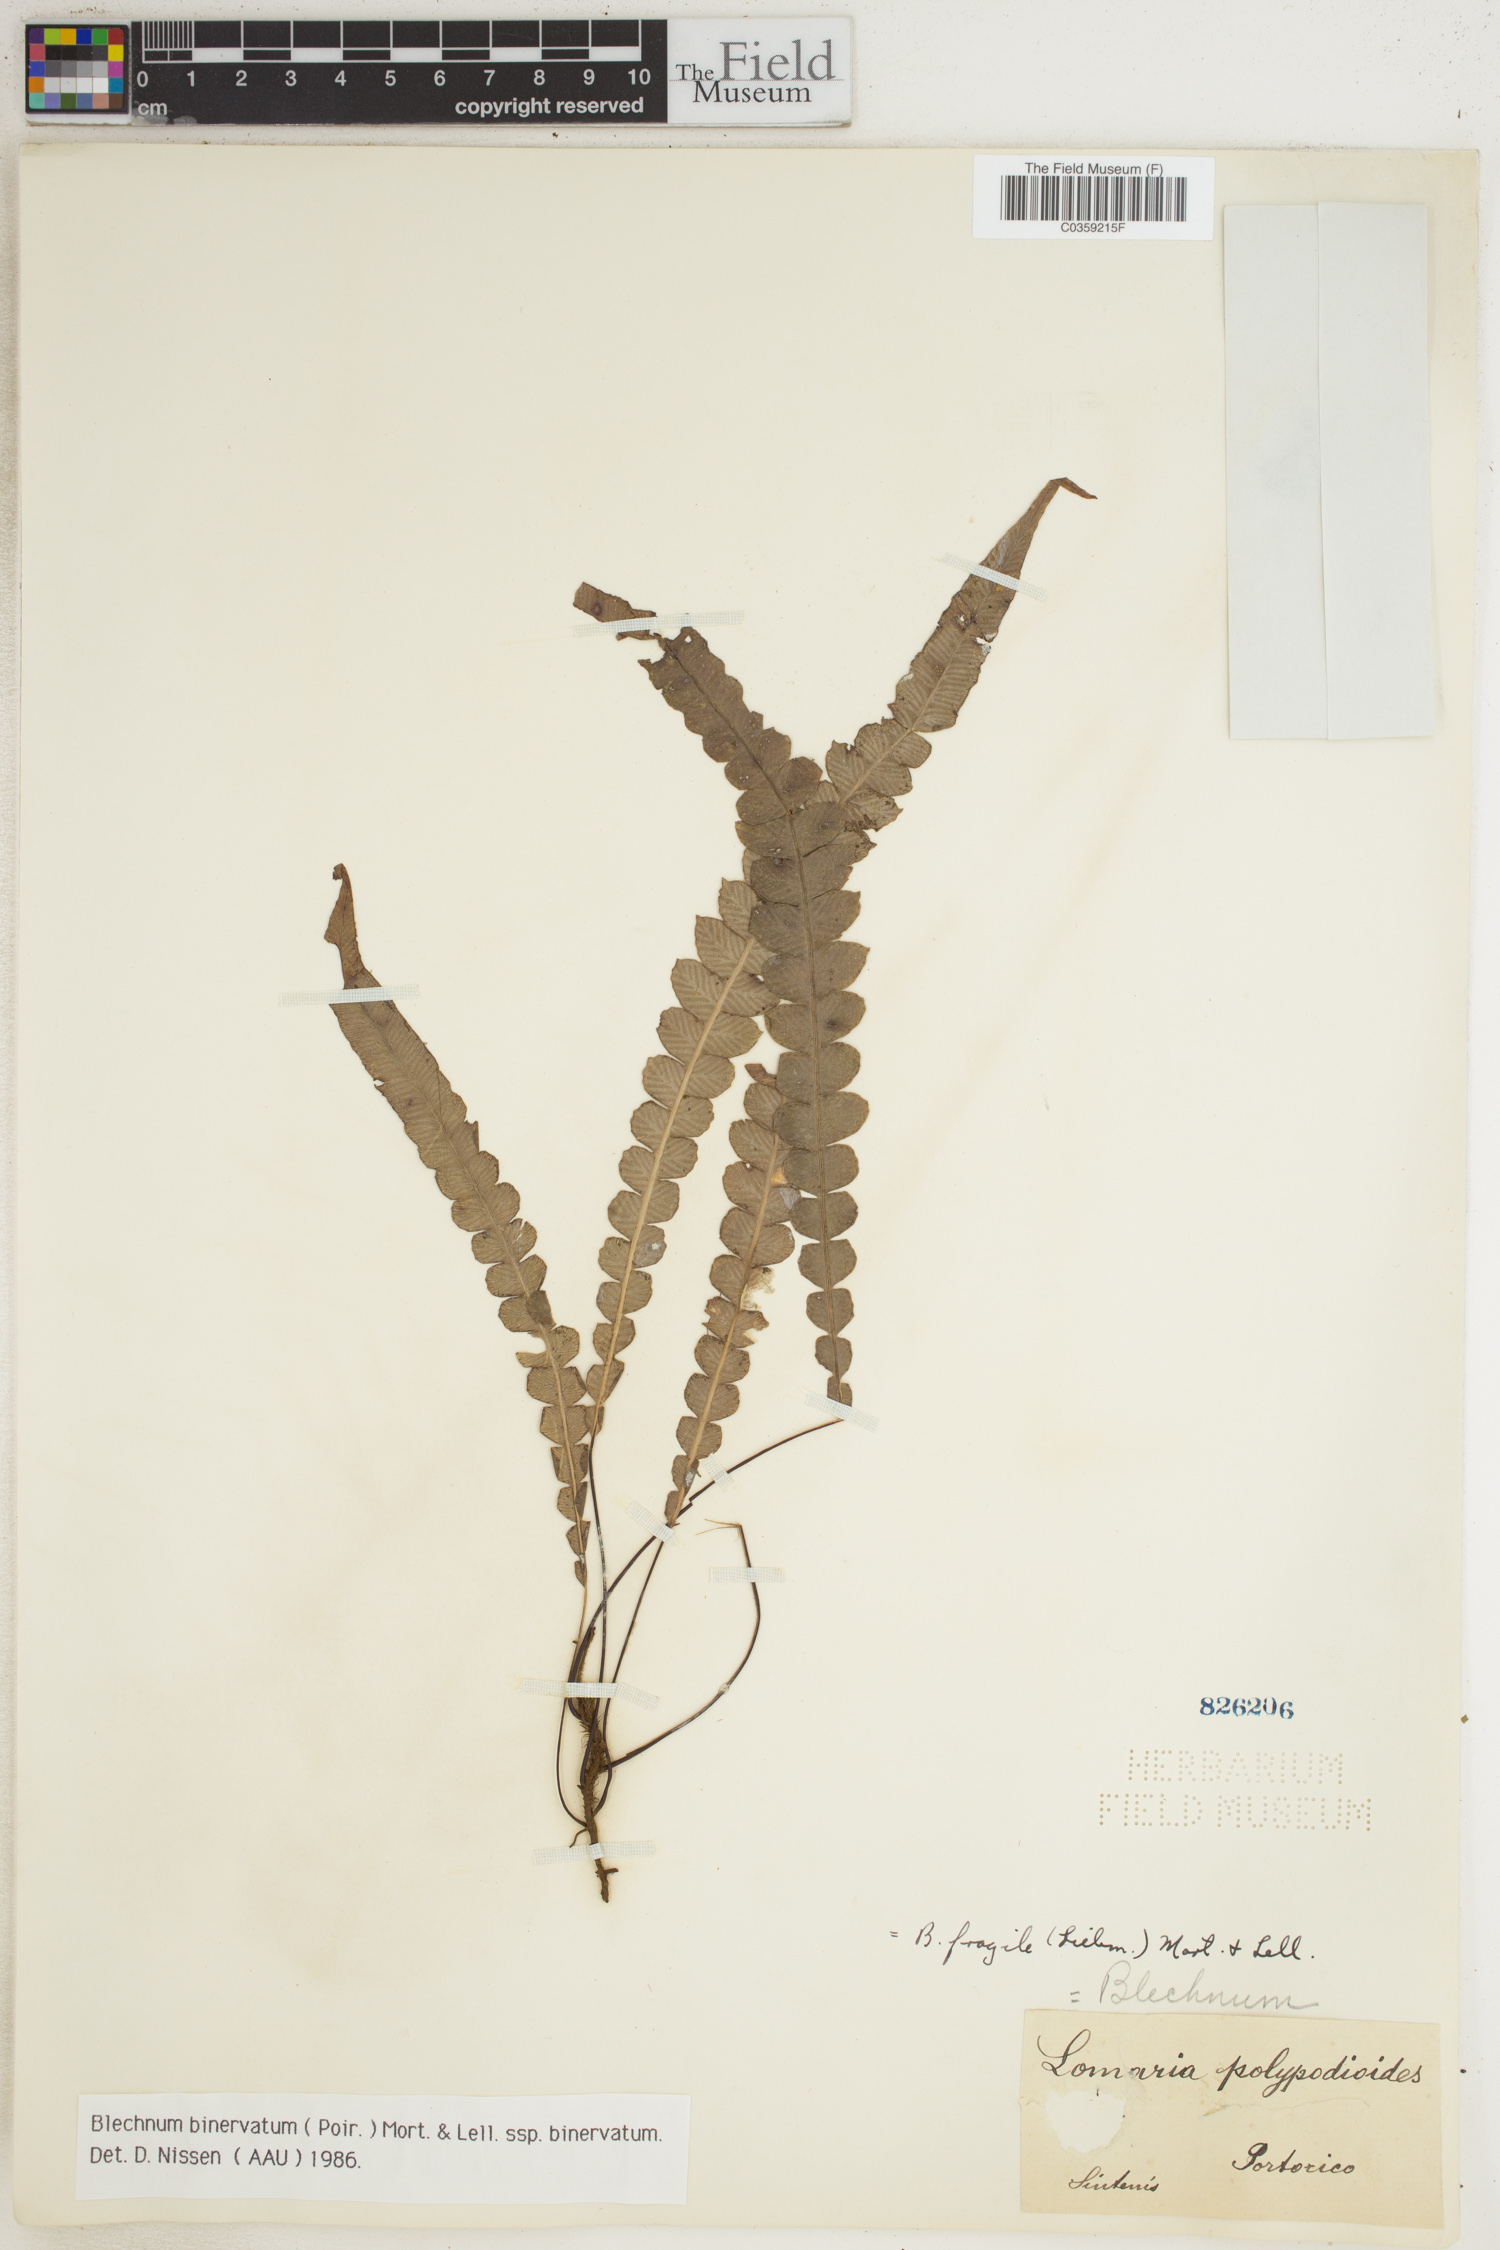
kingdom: Plantae
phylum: Tracheophyta
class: Polypodiopsida
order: Polypodiales
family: Blechnaceae
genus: Lomaridium
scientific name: Lomaridium binervatum
